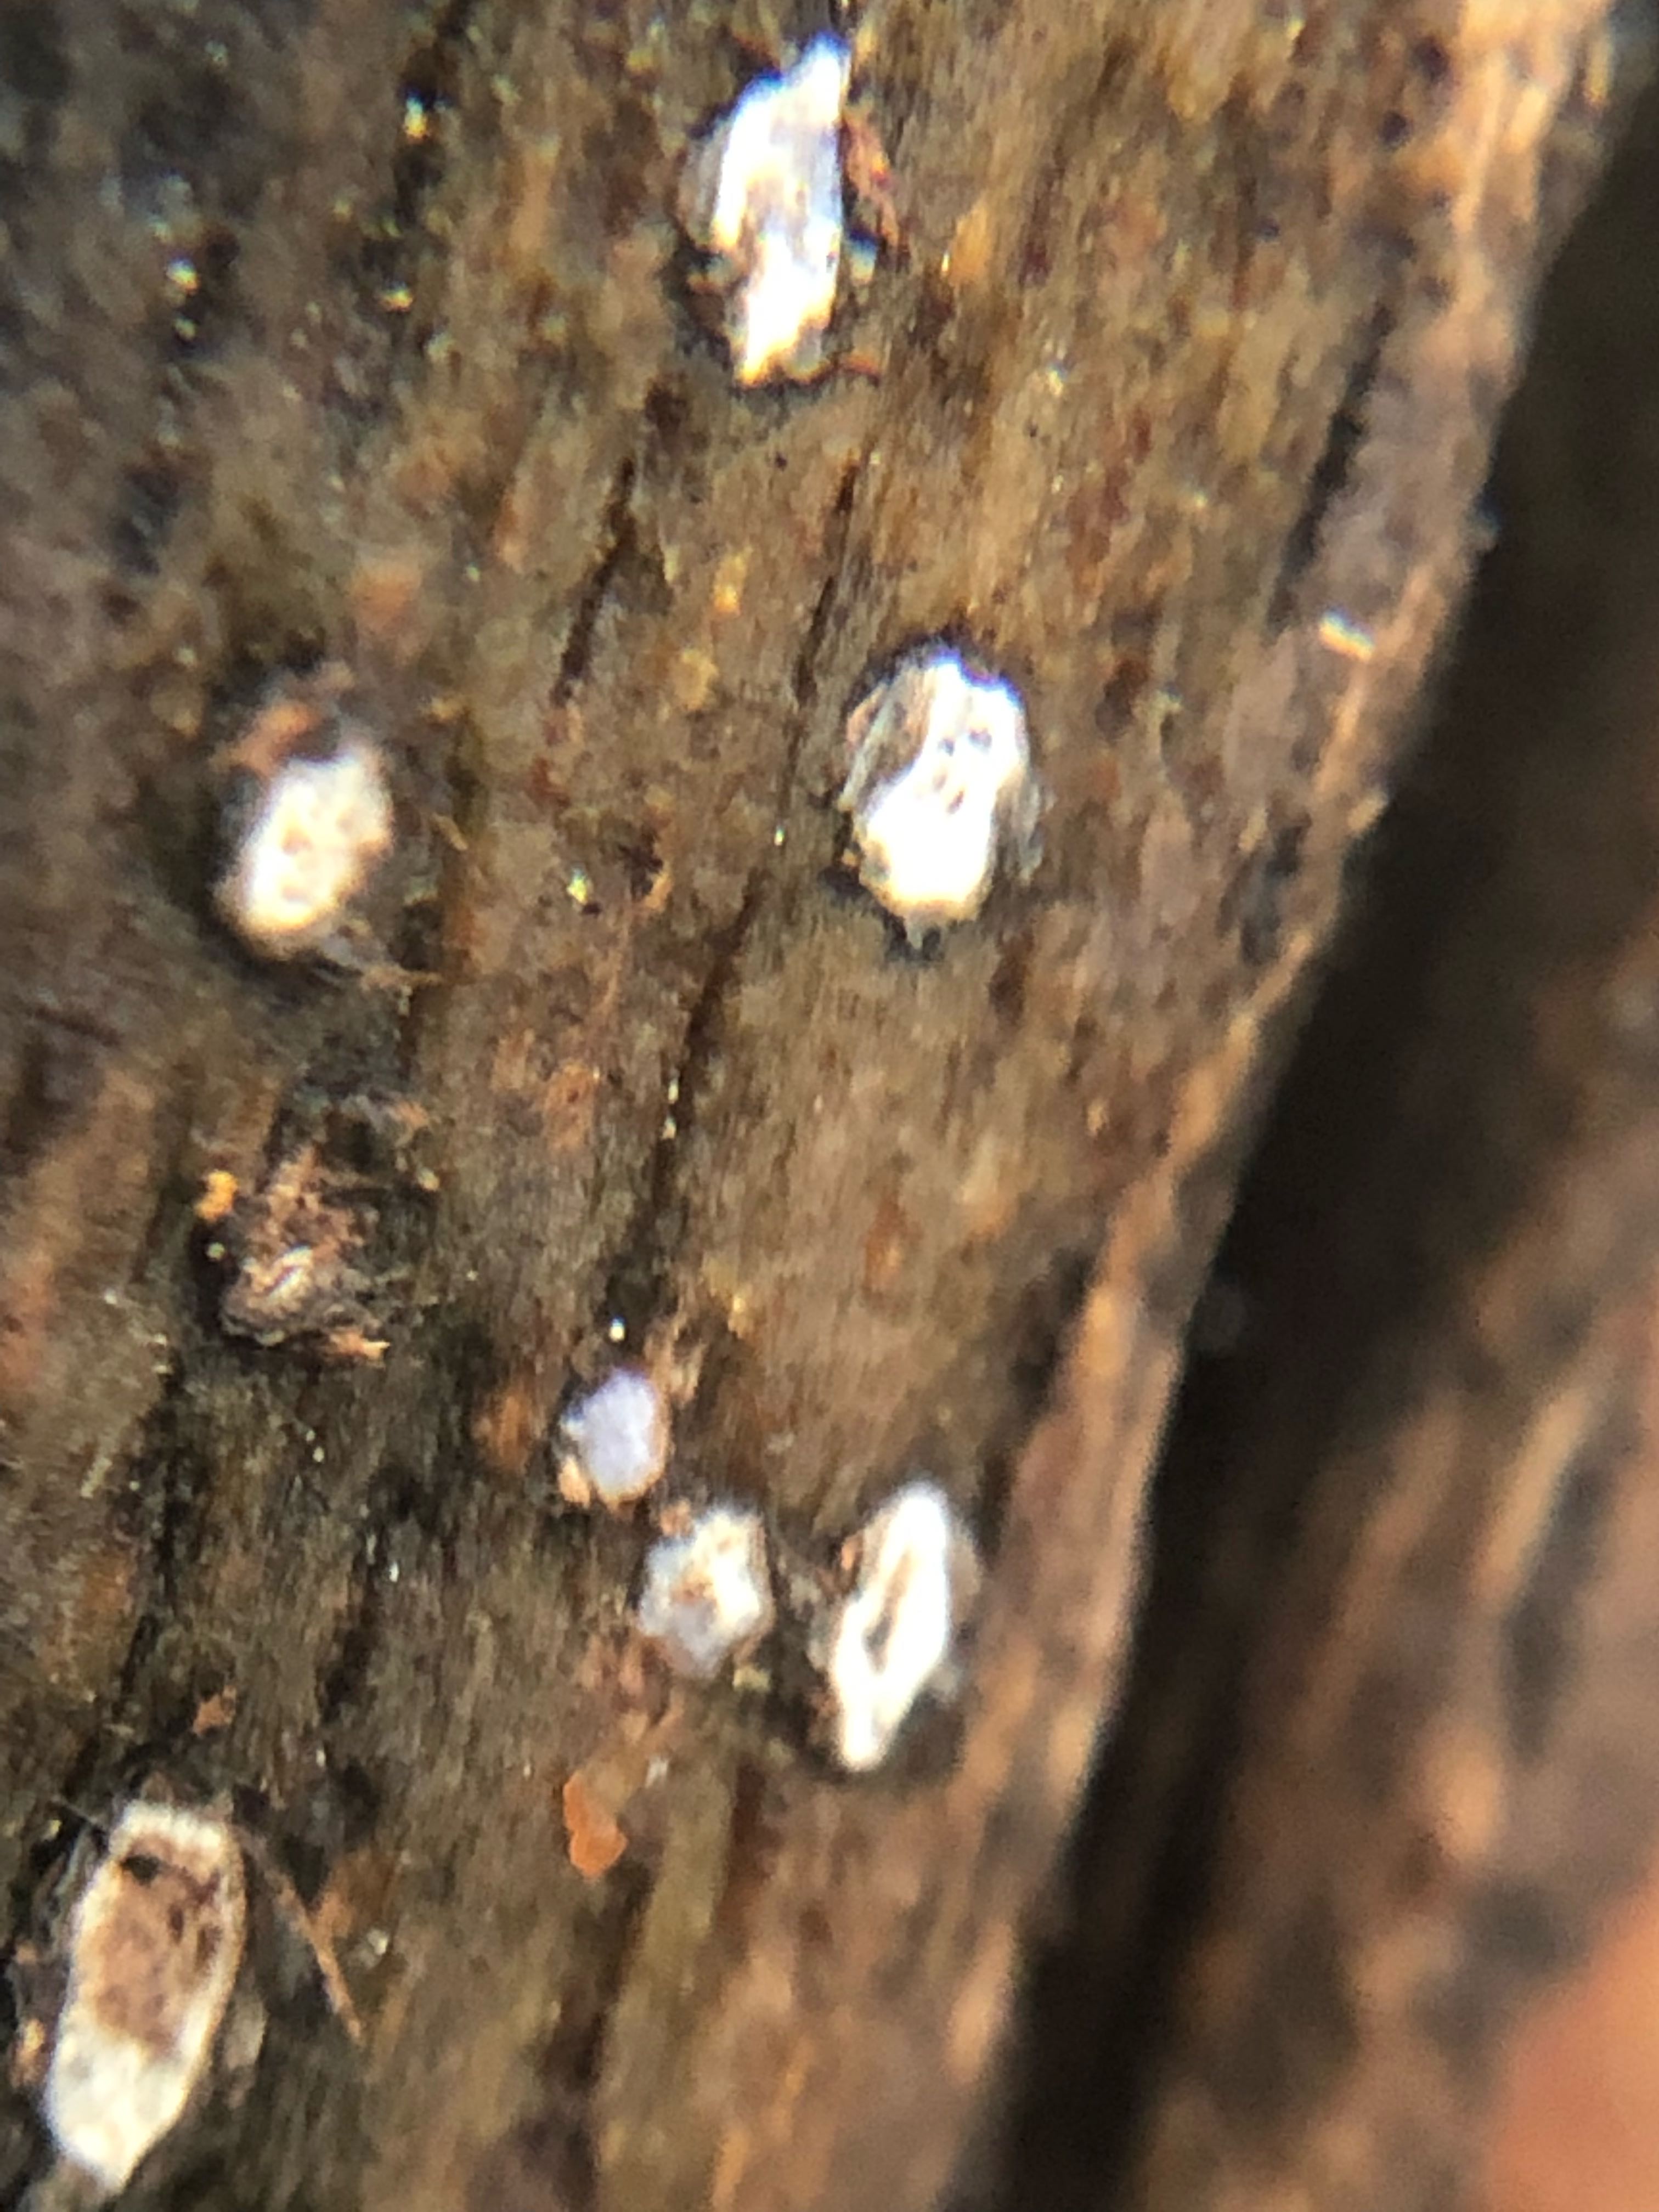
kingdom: Fungi
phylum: Ascomycota
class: Leotiomycetes
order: Chaetomellales
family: Marthamycetaceae
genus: Propolis
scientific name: Propolis farinosa
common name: almindelig vedsprængerskive
